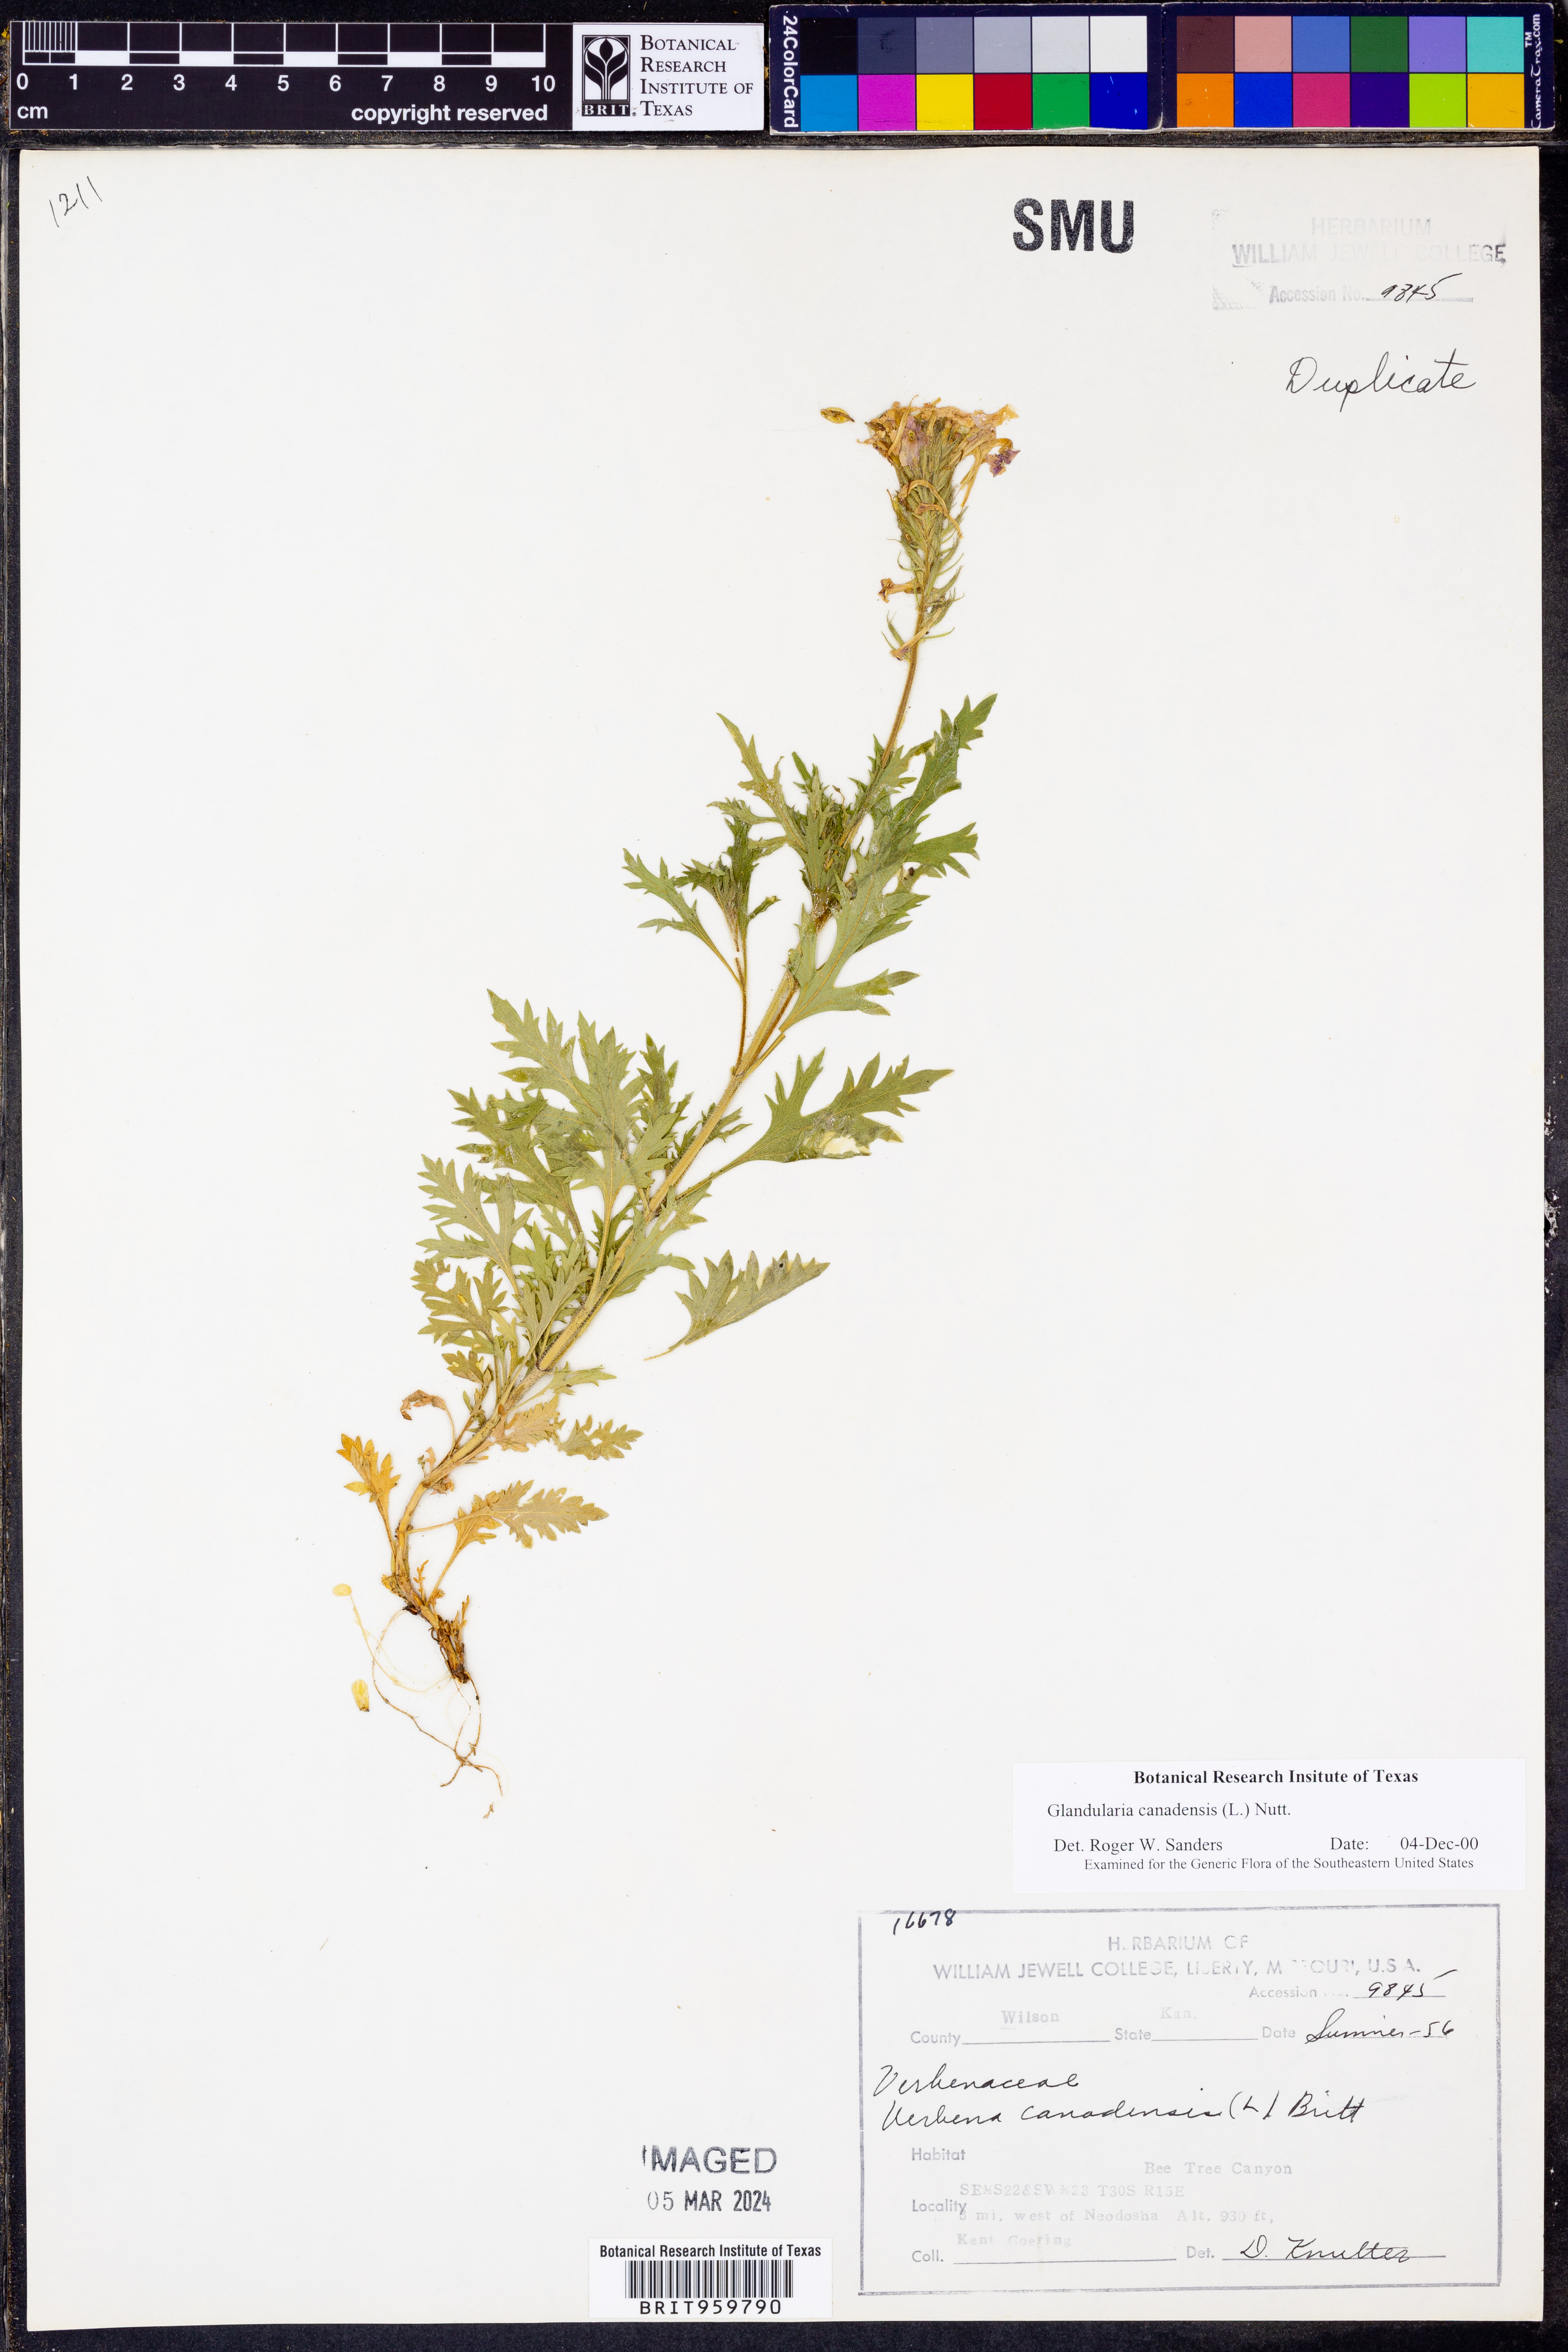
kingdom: Plantae
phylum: Tracheophyta
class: Magnoliopsida
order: Lamiales
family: Verbenaceae
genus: Verbena
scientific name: Verbena canadensis
